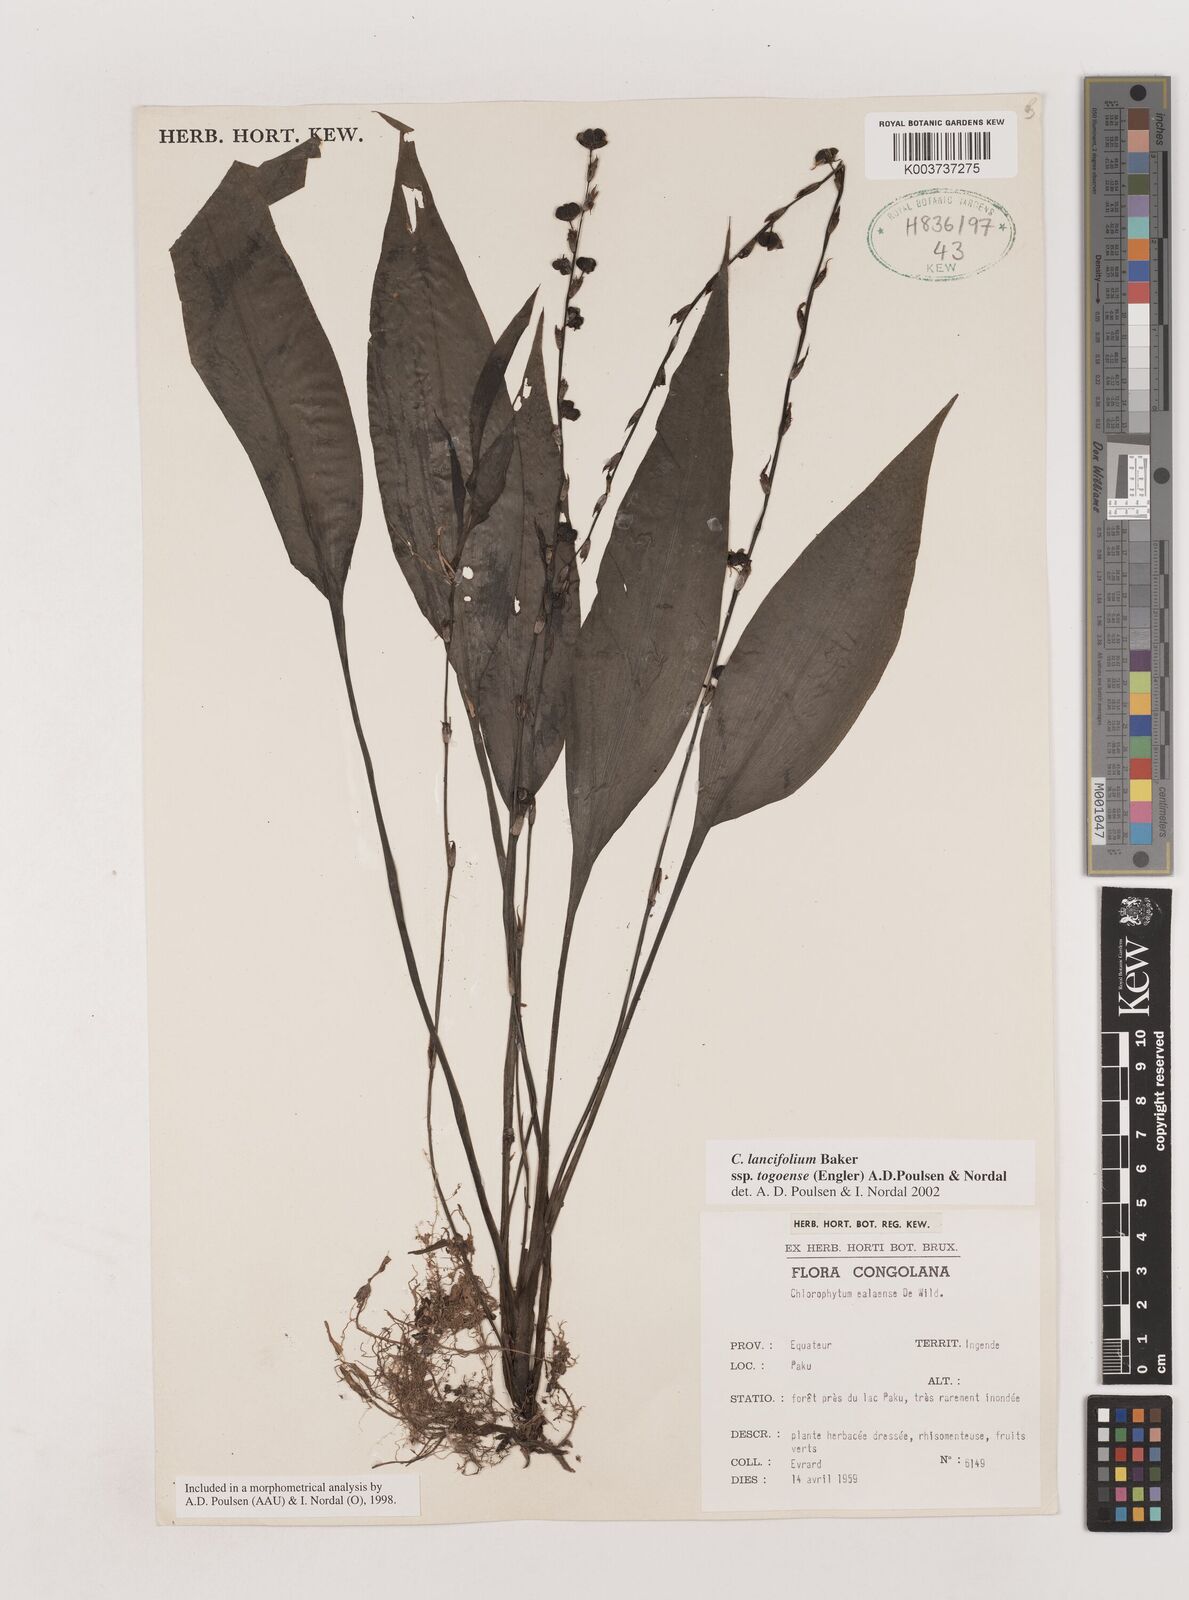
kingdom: Plantae
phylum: Tracheophyta
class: Liliopsida
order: Asparagales
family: Asparagaceae
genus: Chlorophytum
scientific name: Chlorophytum lancifolium
